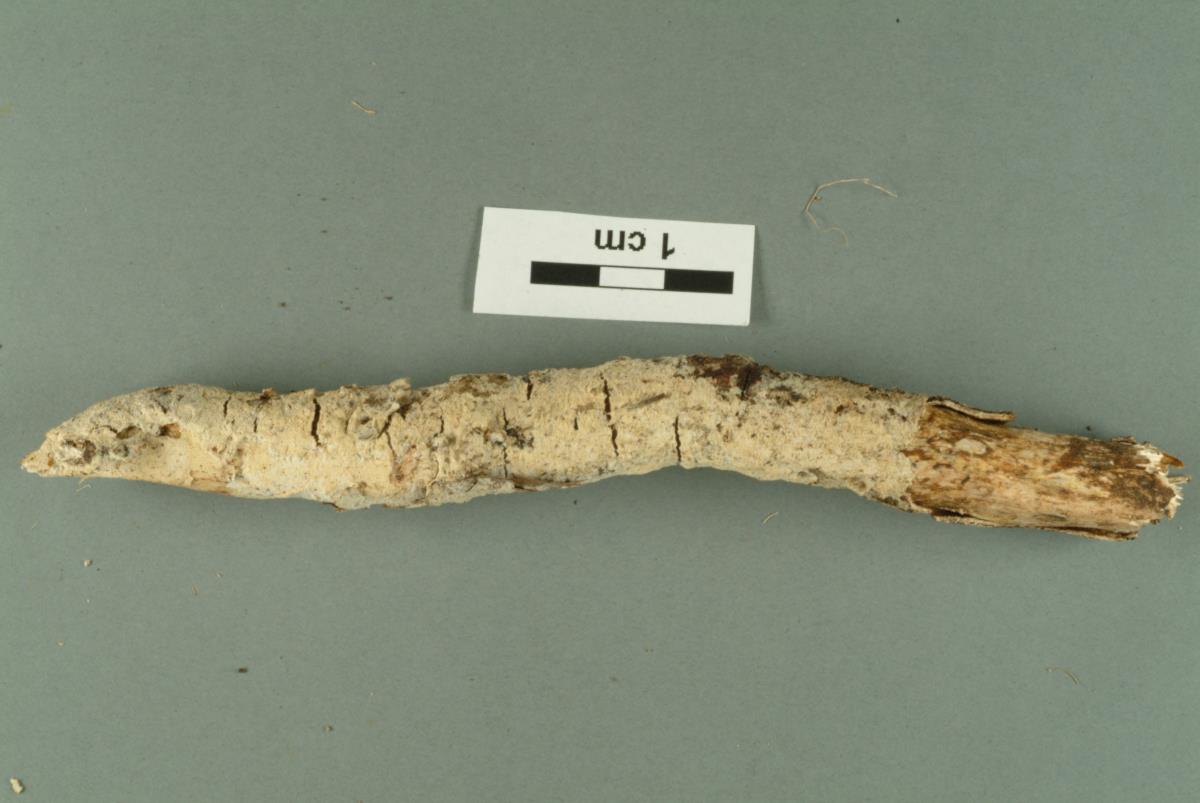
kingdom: Fungi
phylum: Basidiomycota
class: Agaricomycetes
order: Hymenochaetales
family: Hyphodontiaceae
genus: Hyphodontia
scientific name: Hyphodontia
